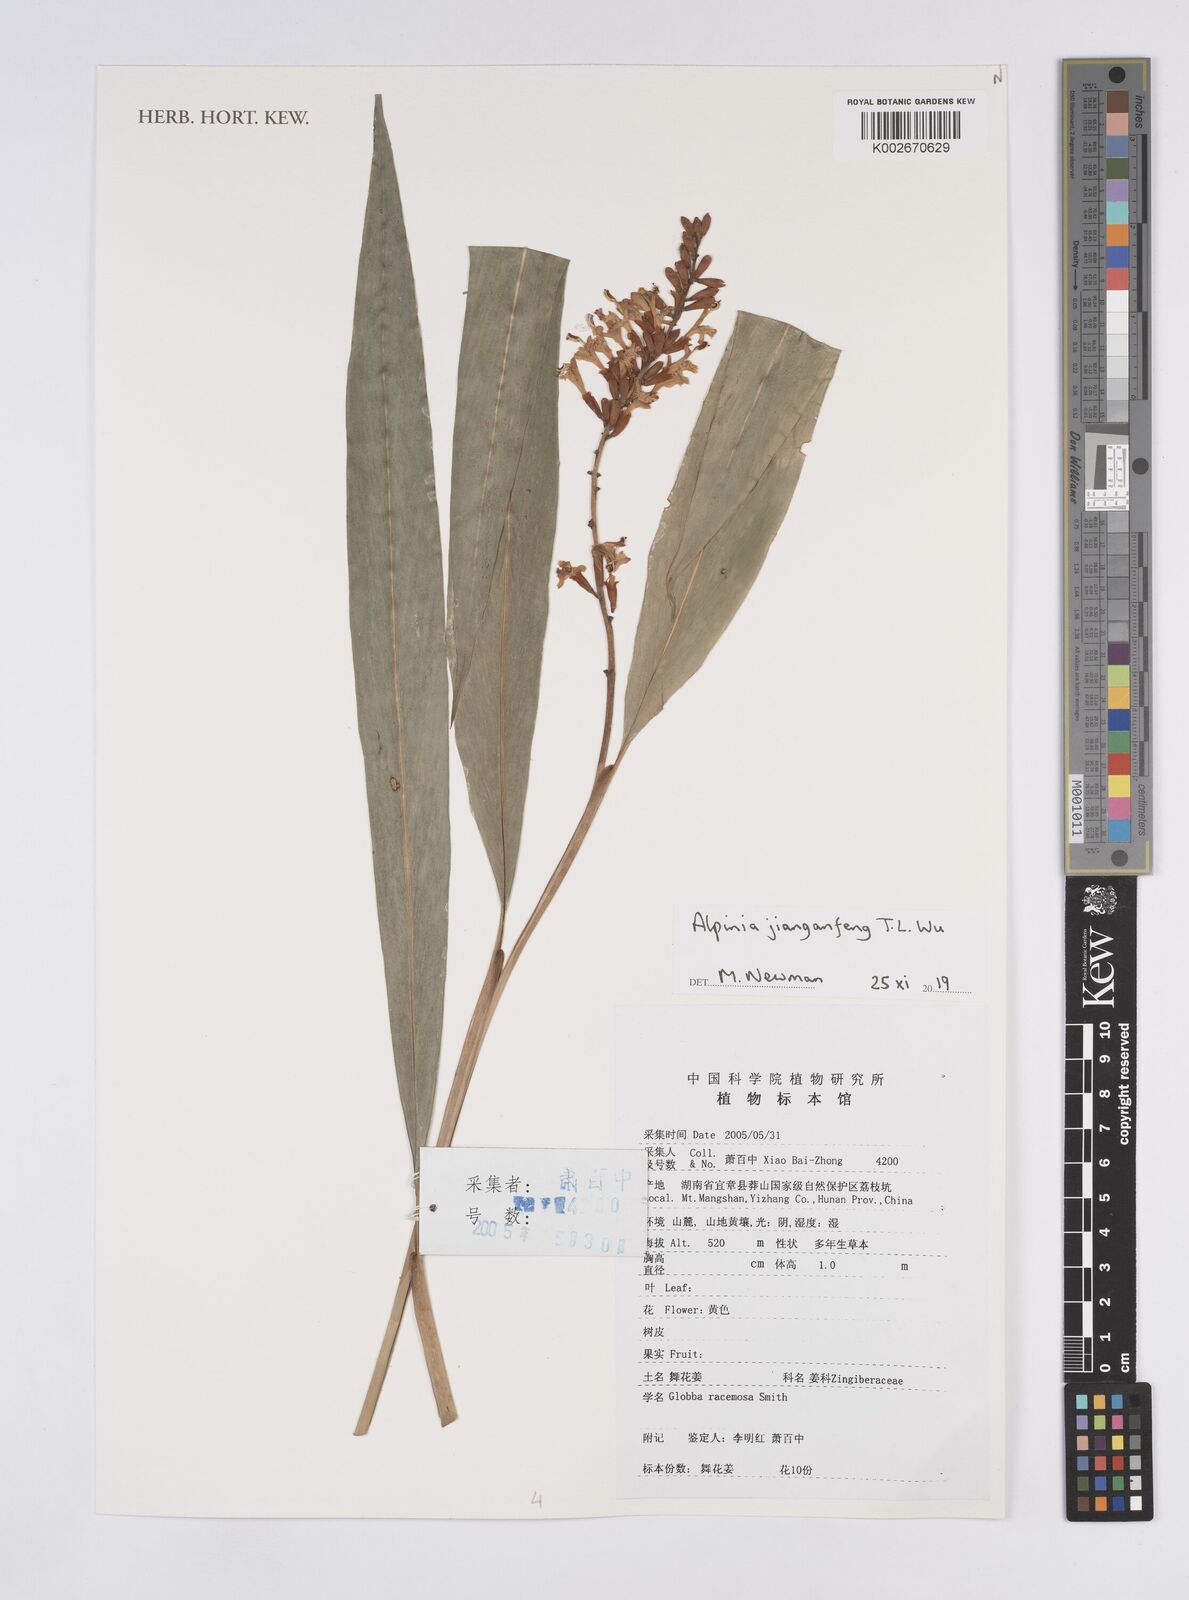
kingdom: Plantae
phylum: Tracheophyta
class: Liliopsida
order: Zingiberales
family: Zingiberaceae
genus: Alpinia
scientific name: Alpinia jianganfeng
